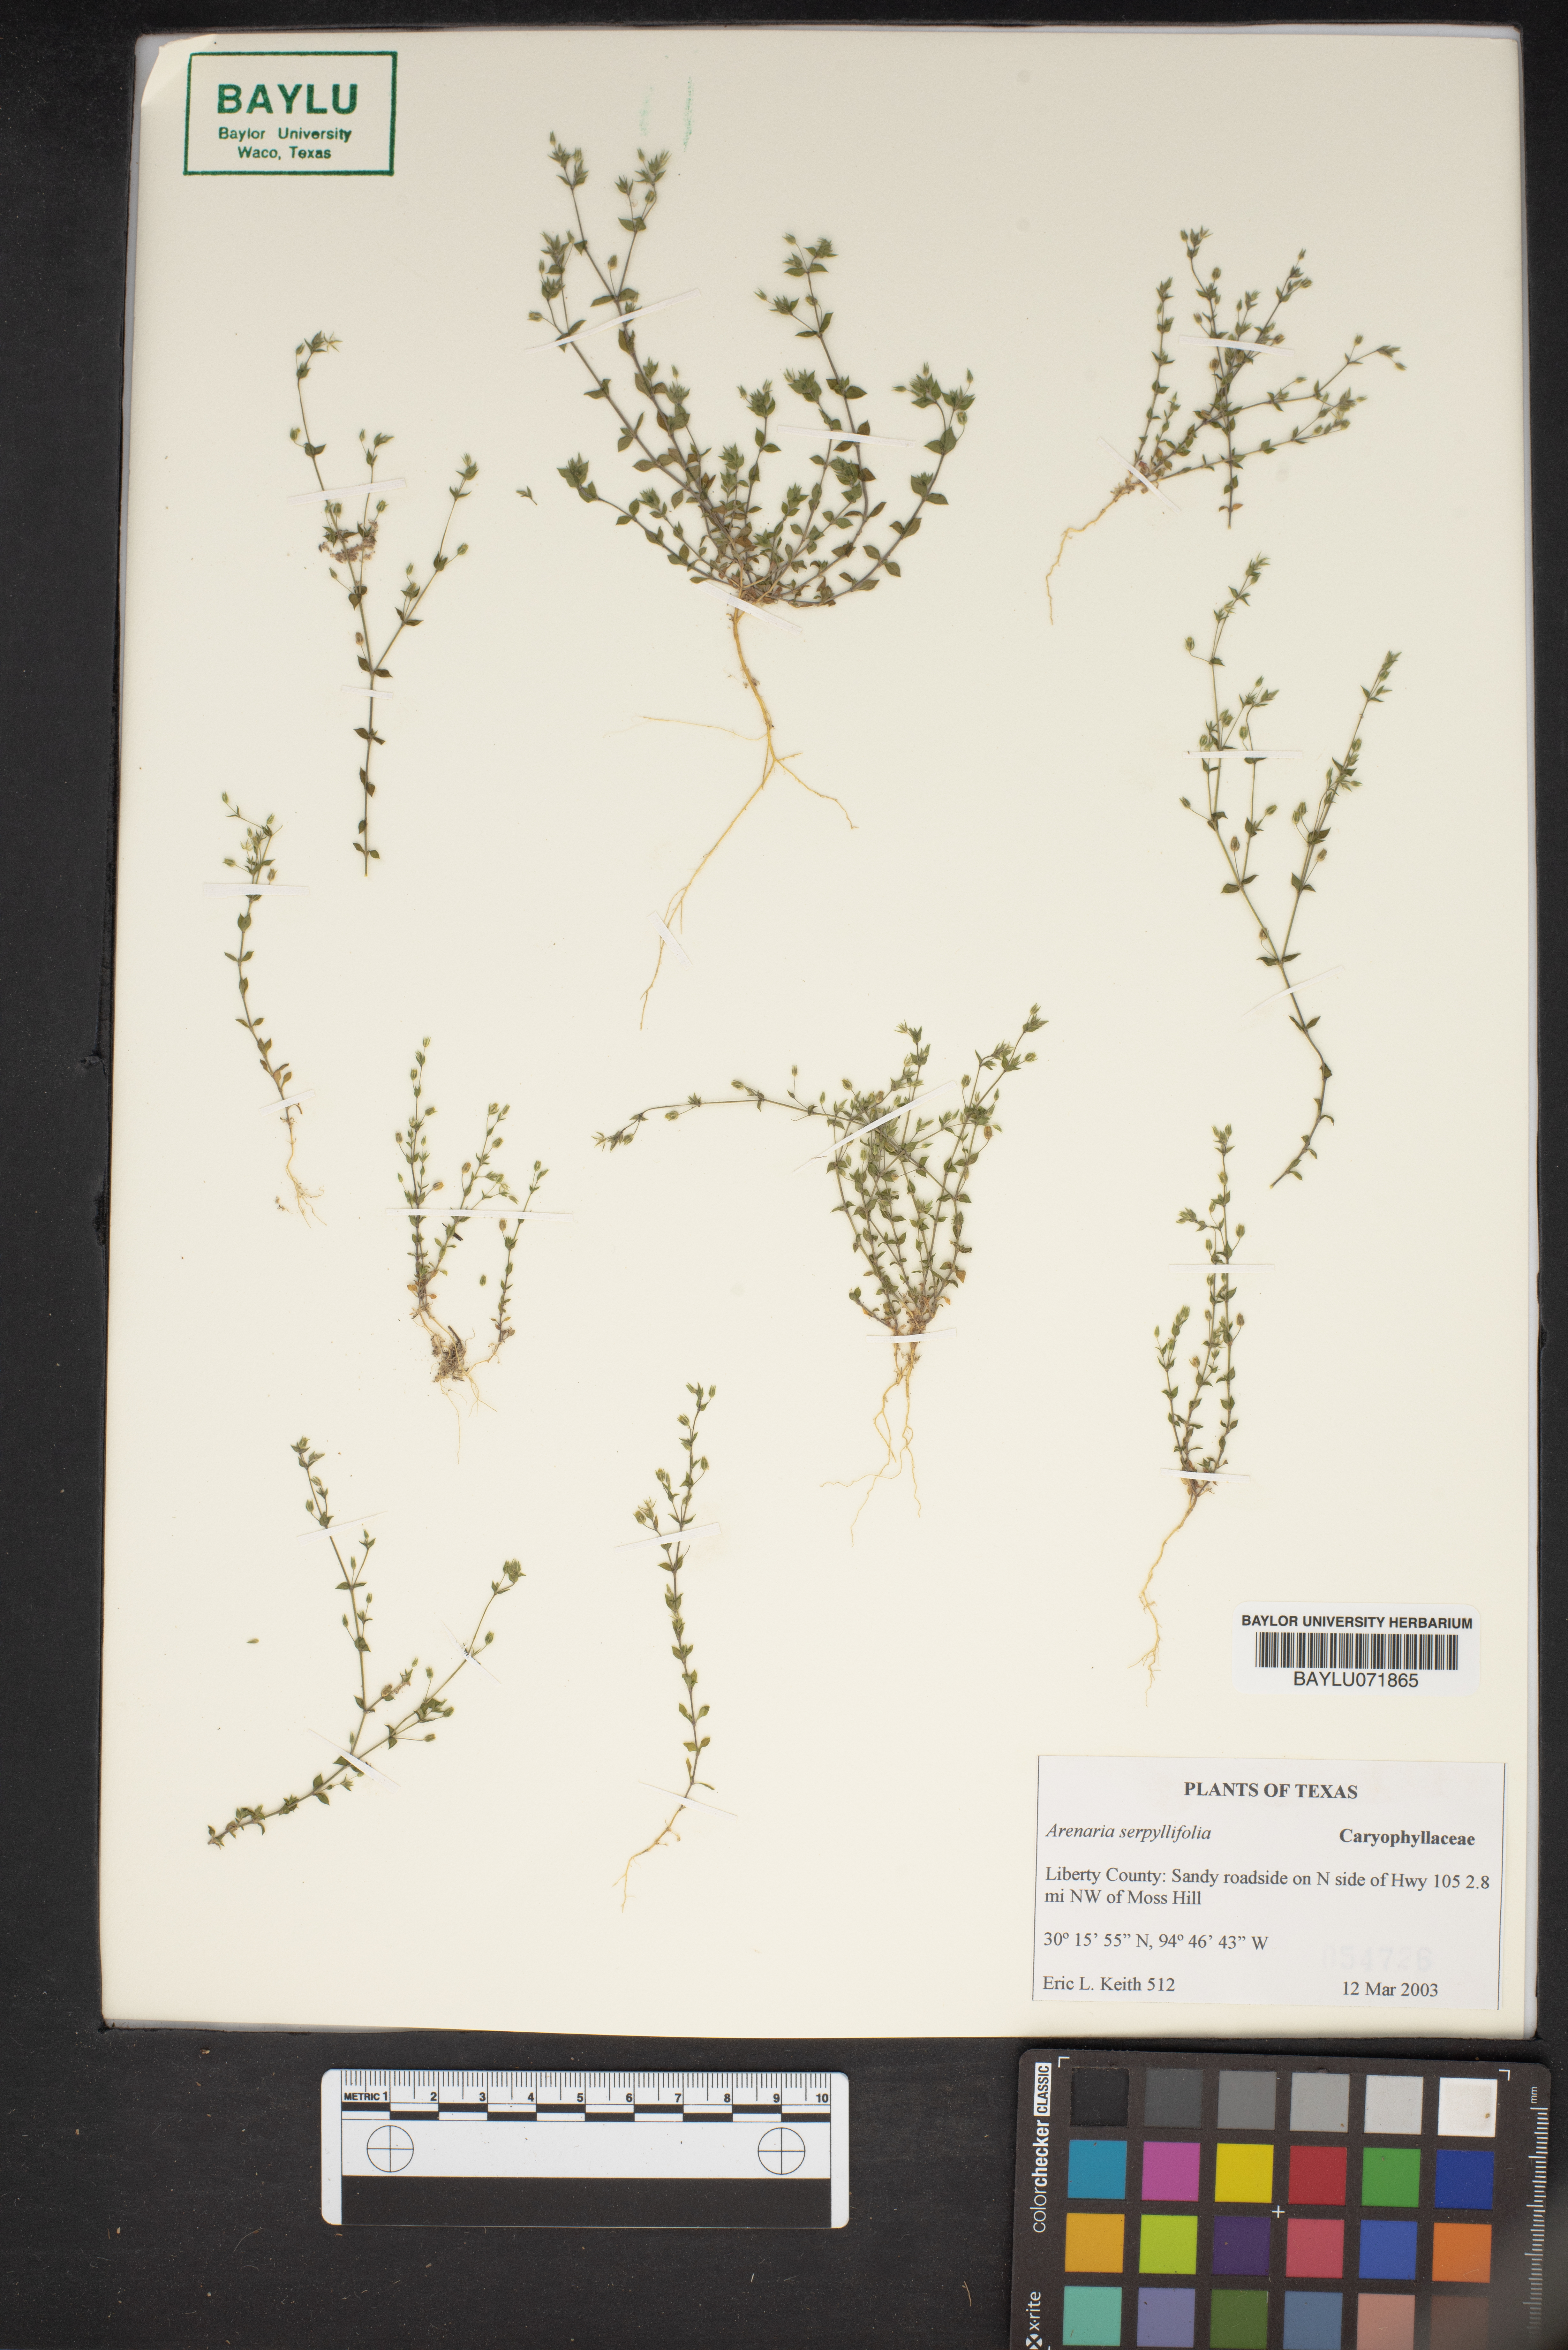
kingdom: Plantae
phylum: Tracheophyta
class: Magnoliopsida
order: Caryophyllales
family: Caryophyllaceae
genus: Arenaria
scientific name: Arenaria serpyllifolia
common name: Thyme-leaved sandwort
